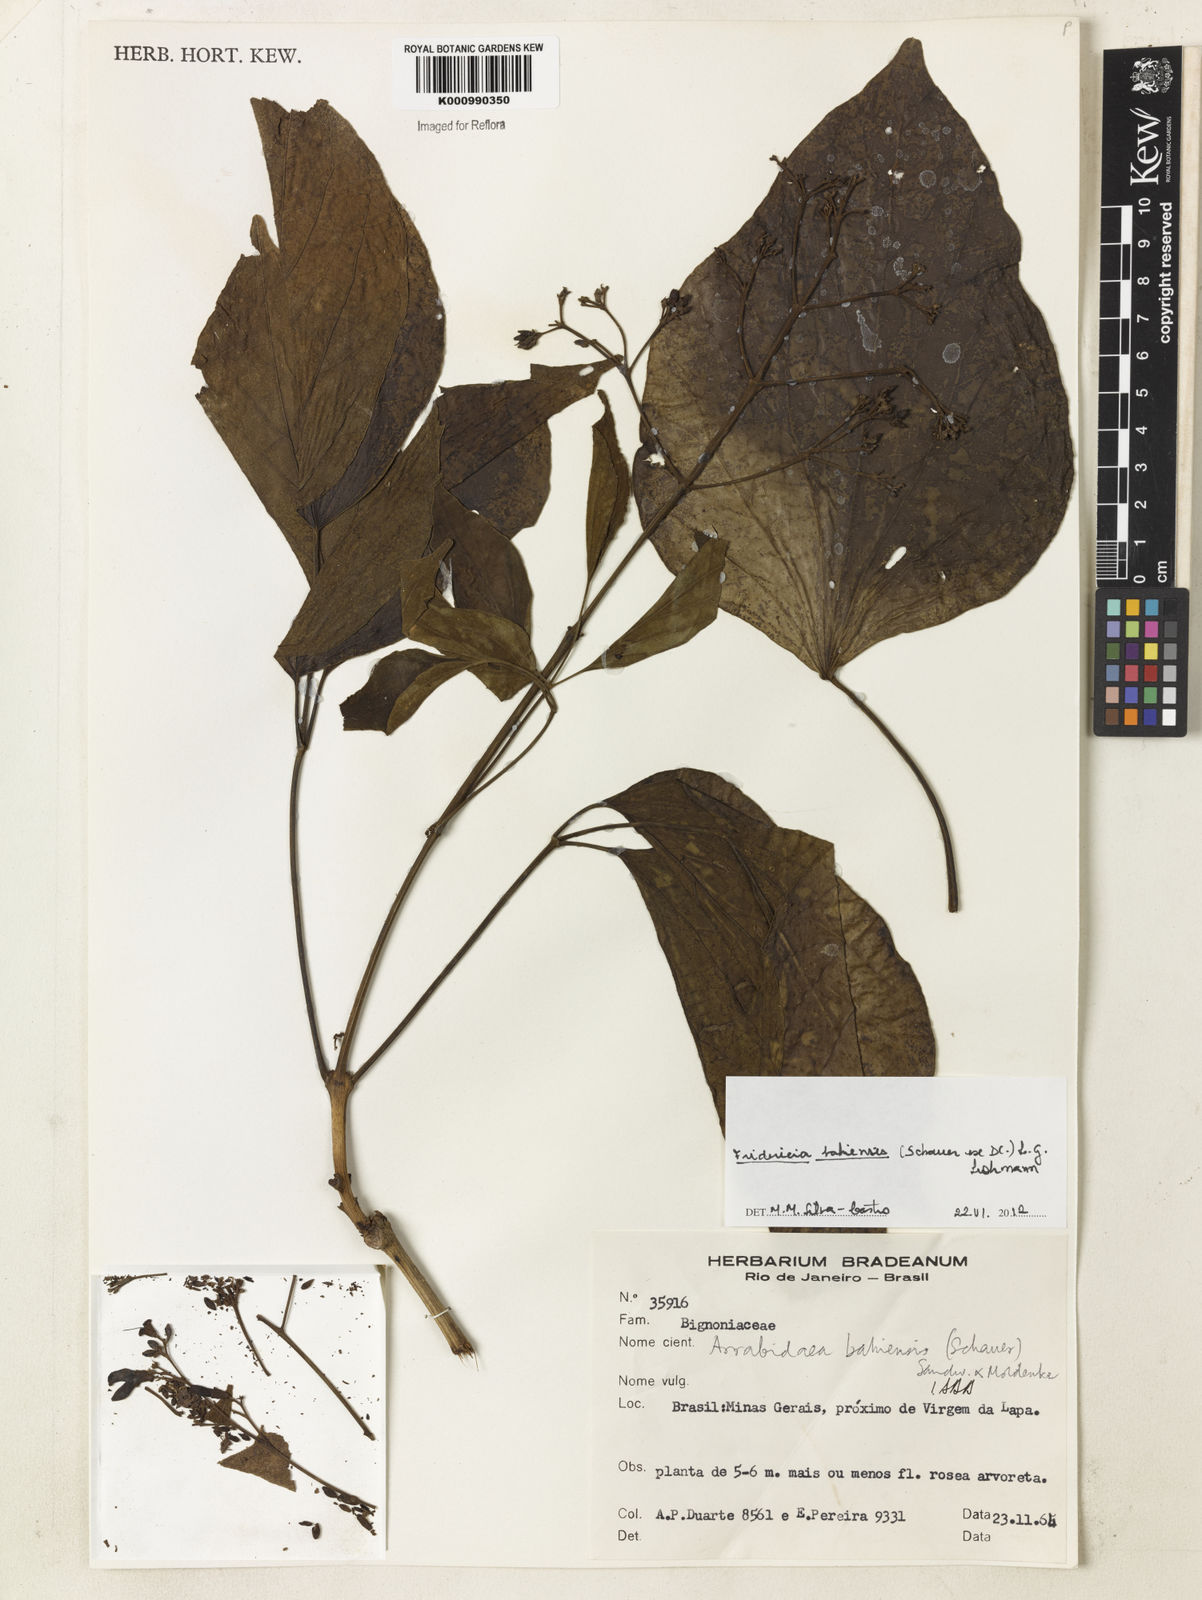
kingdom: Plantae
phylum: Tracheophyta
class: Magnoliopsida
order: Lamiales
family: Bignoniaceae
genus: Fridericia
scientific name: Fridericia bahiensis
